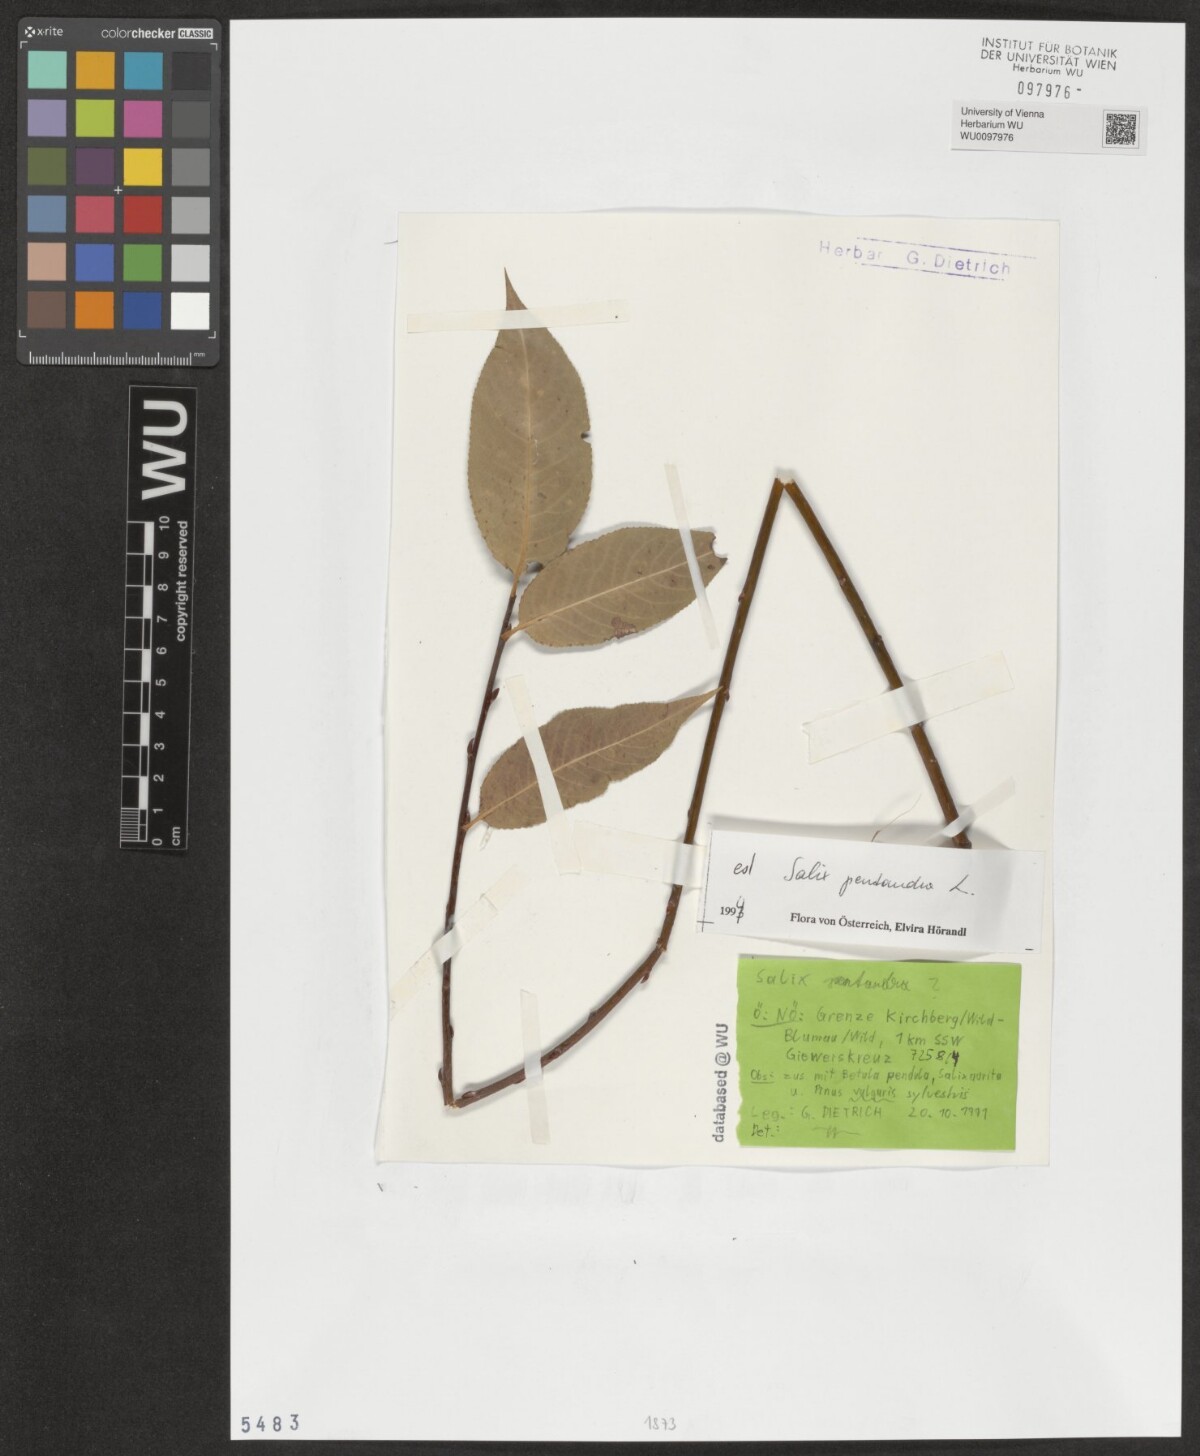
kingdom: Plantae
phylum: Tracheophyta
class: Magnoliopsida
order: Malpighiales
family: Salicaceae
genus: Salix
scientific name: Salix pentandra
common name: Bay willow
